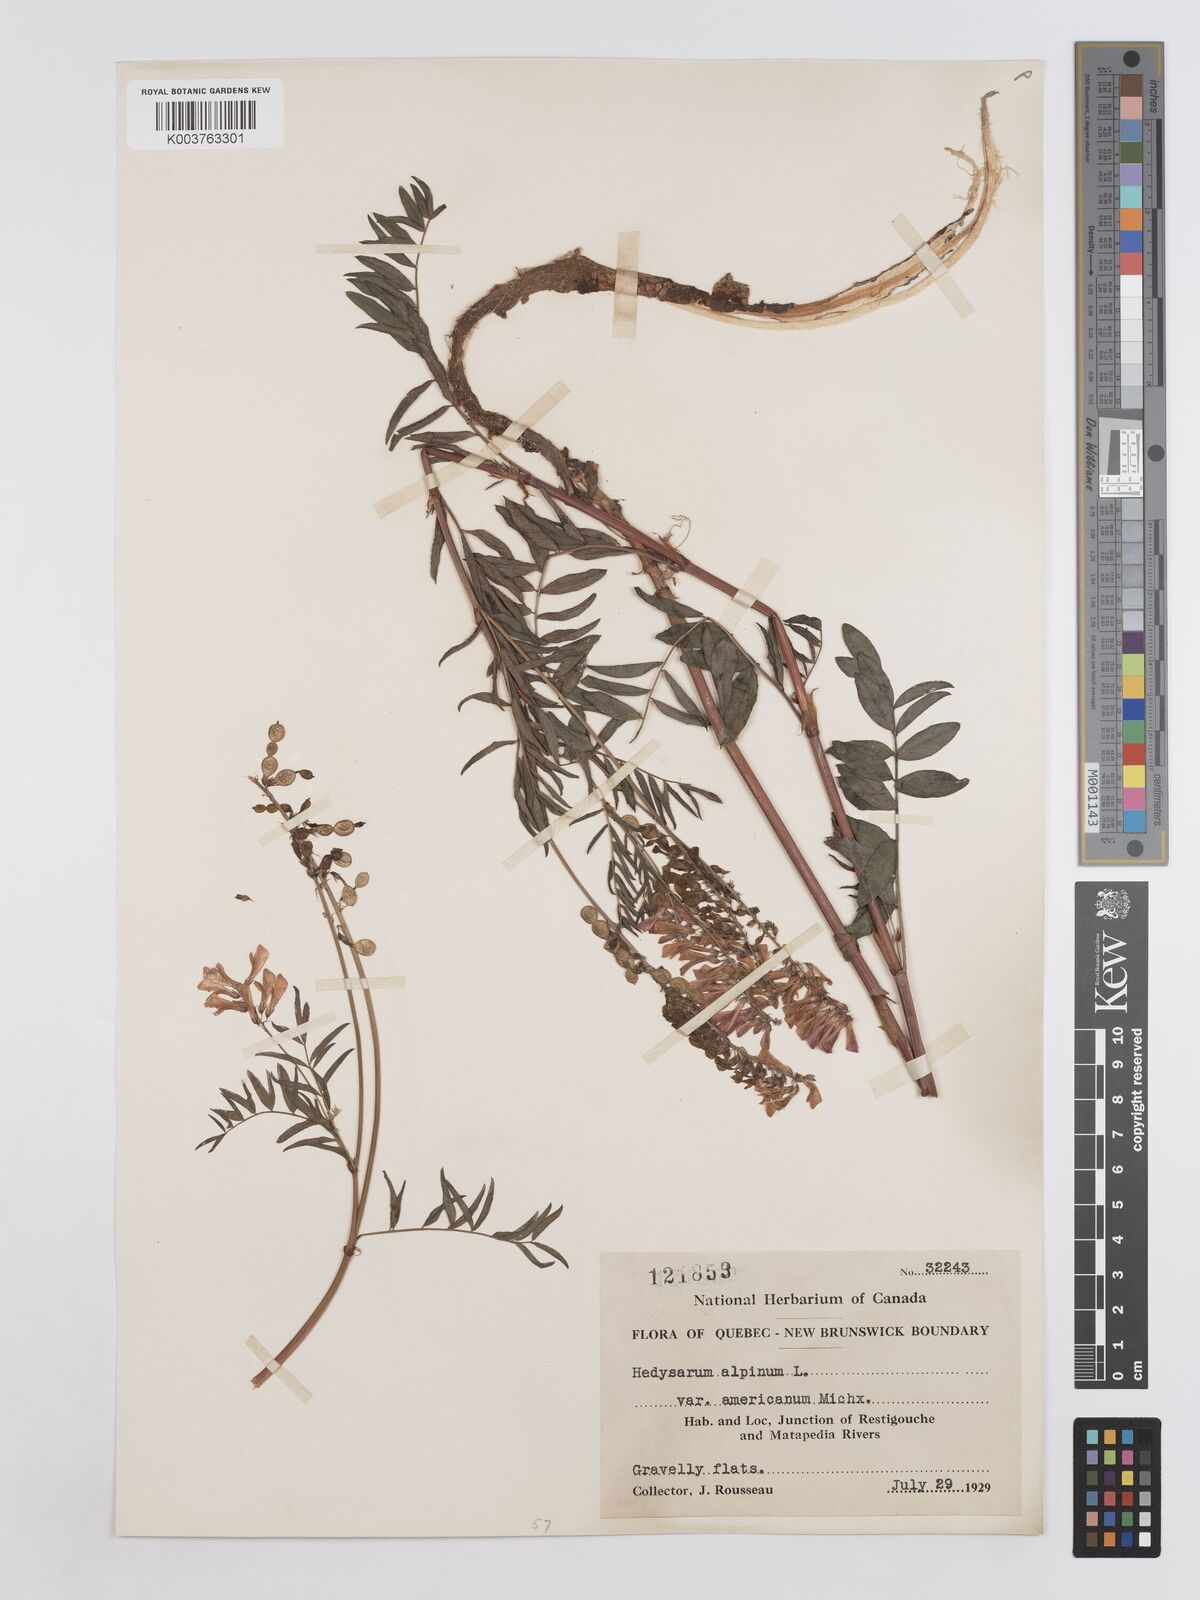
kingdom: Plantae
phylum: Tracheophyta
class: Magnoliopsida
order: Fabales
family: Fabaceae
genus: Hedysarum
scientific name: Hedysarum alpinum
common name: Alpine sweet-vetch
